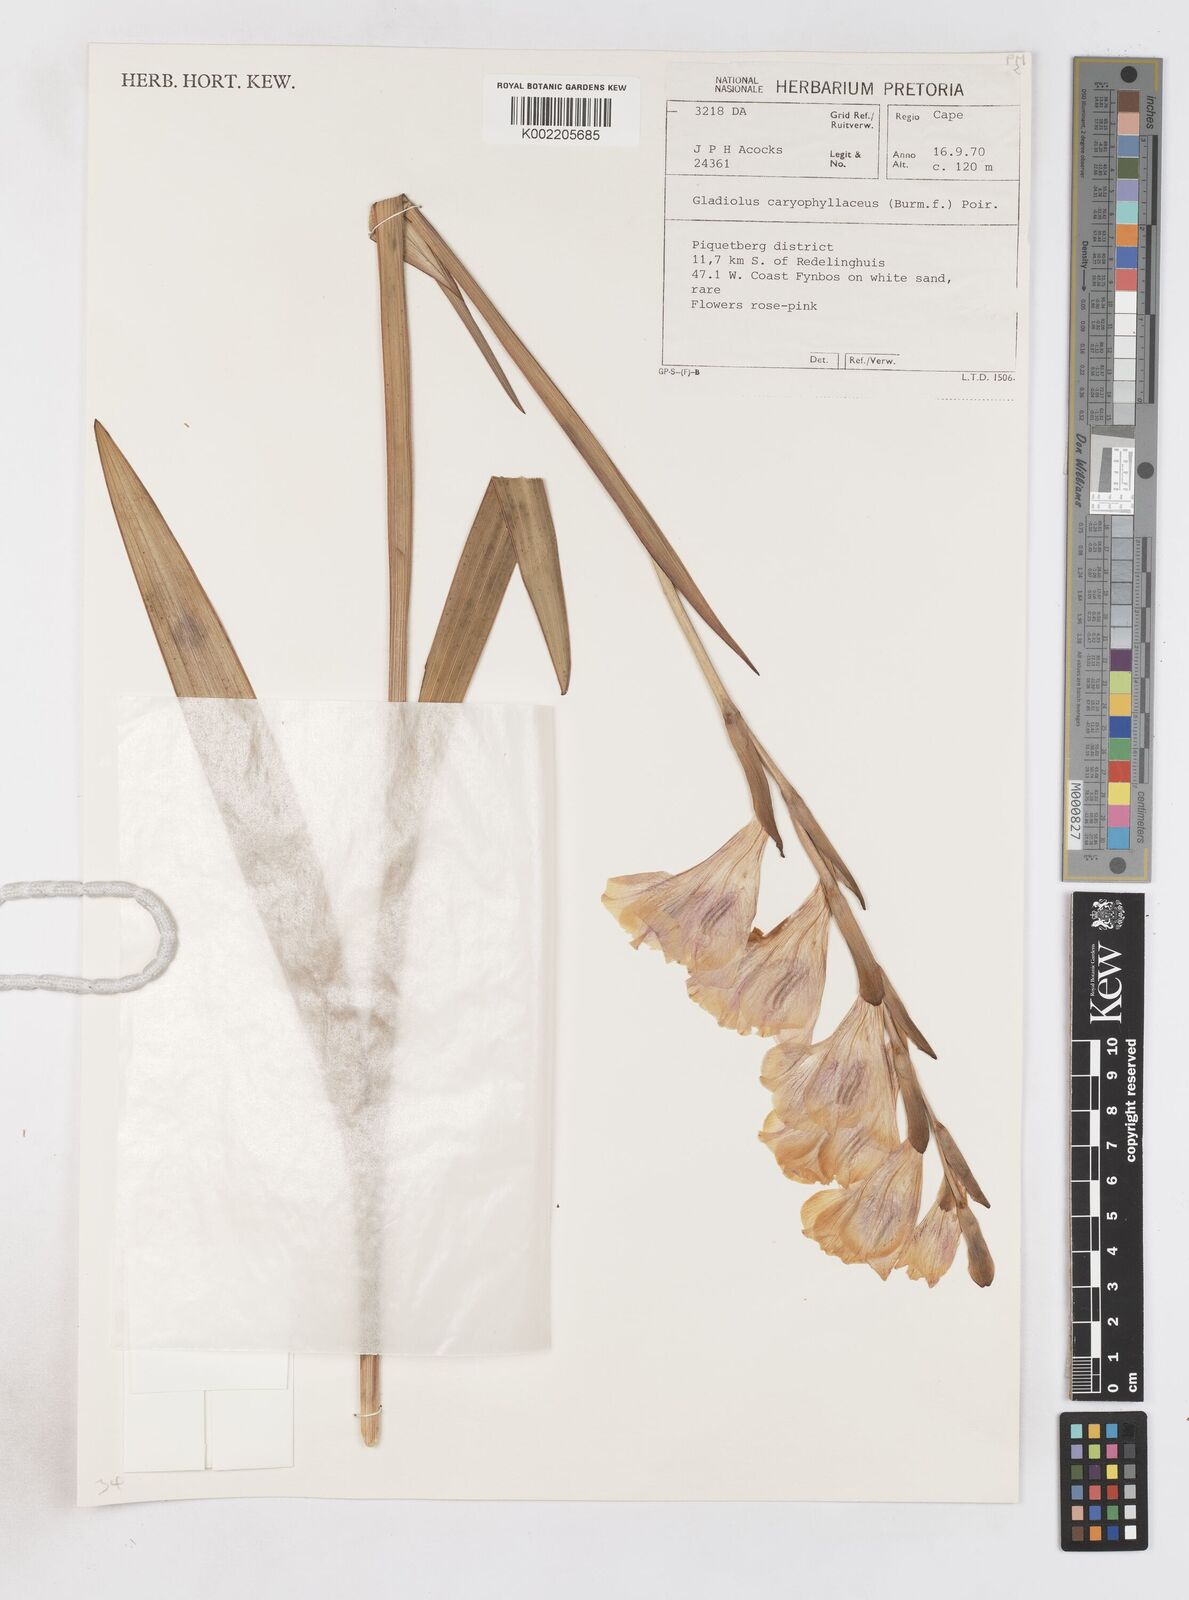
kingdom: Plantae
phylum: Tracheophyta
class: Liliopsida
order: Asparagales
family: Iridaceae
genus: Gladiolus
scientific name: Gladiolus caryophyllaceus
